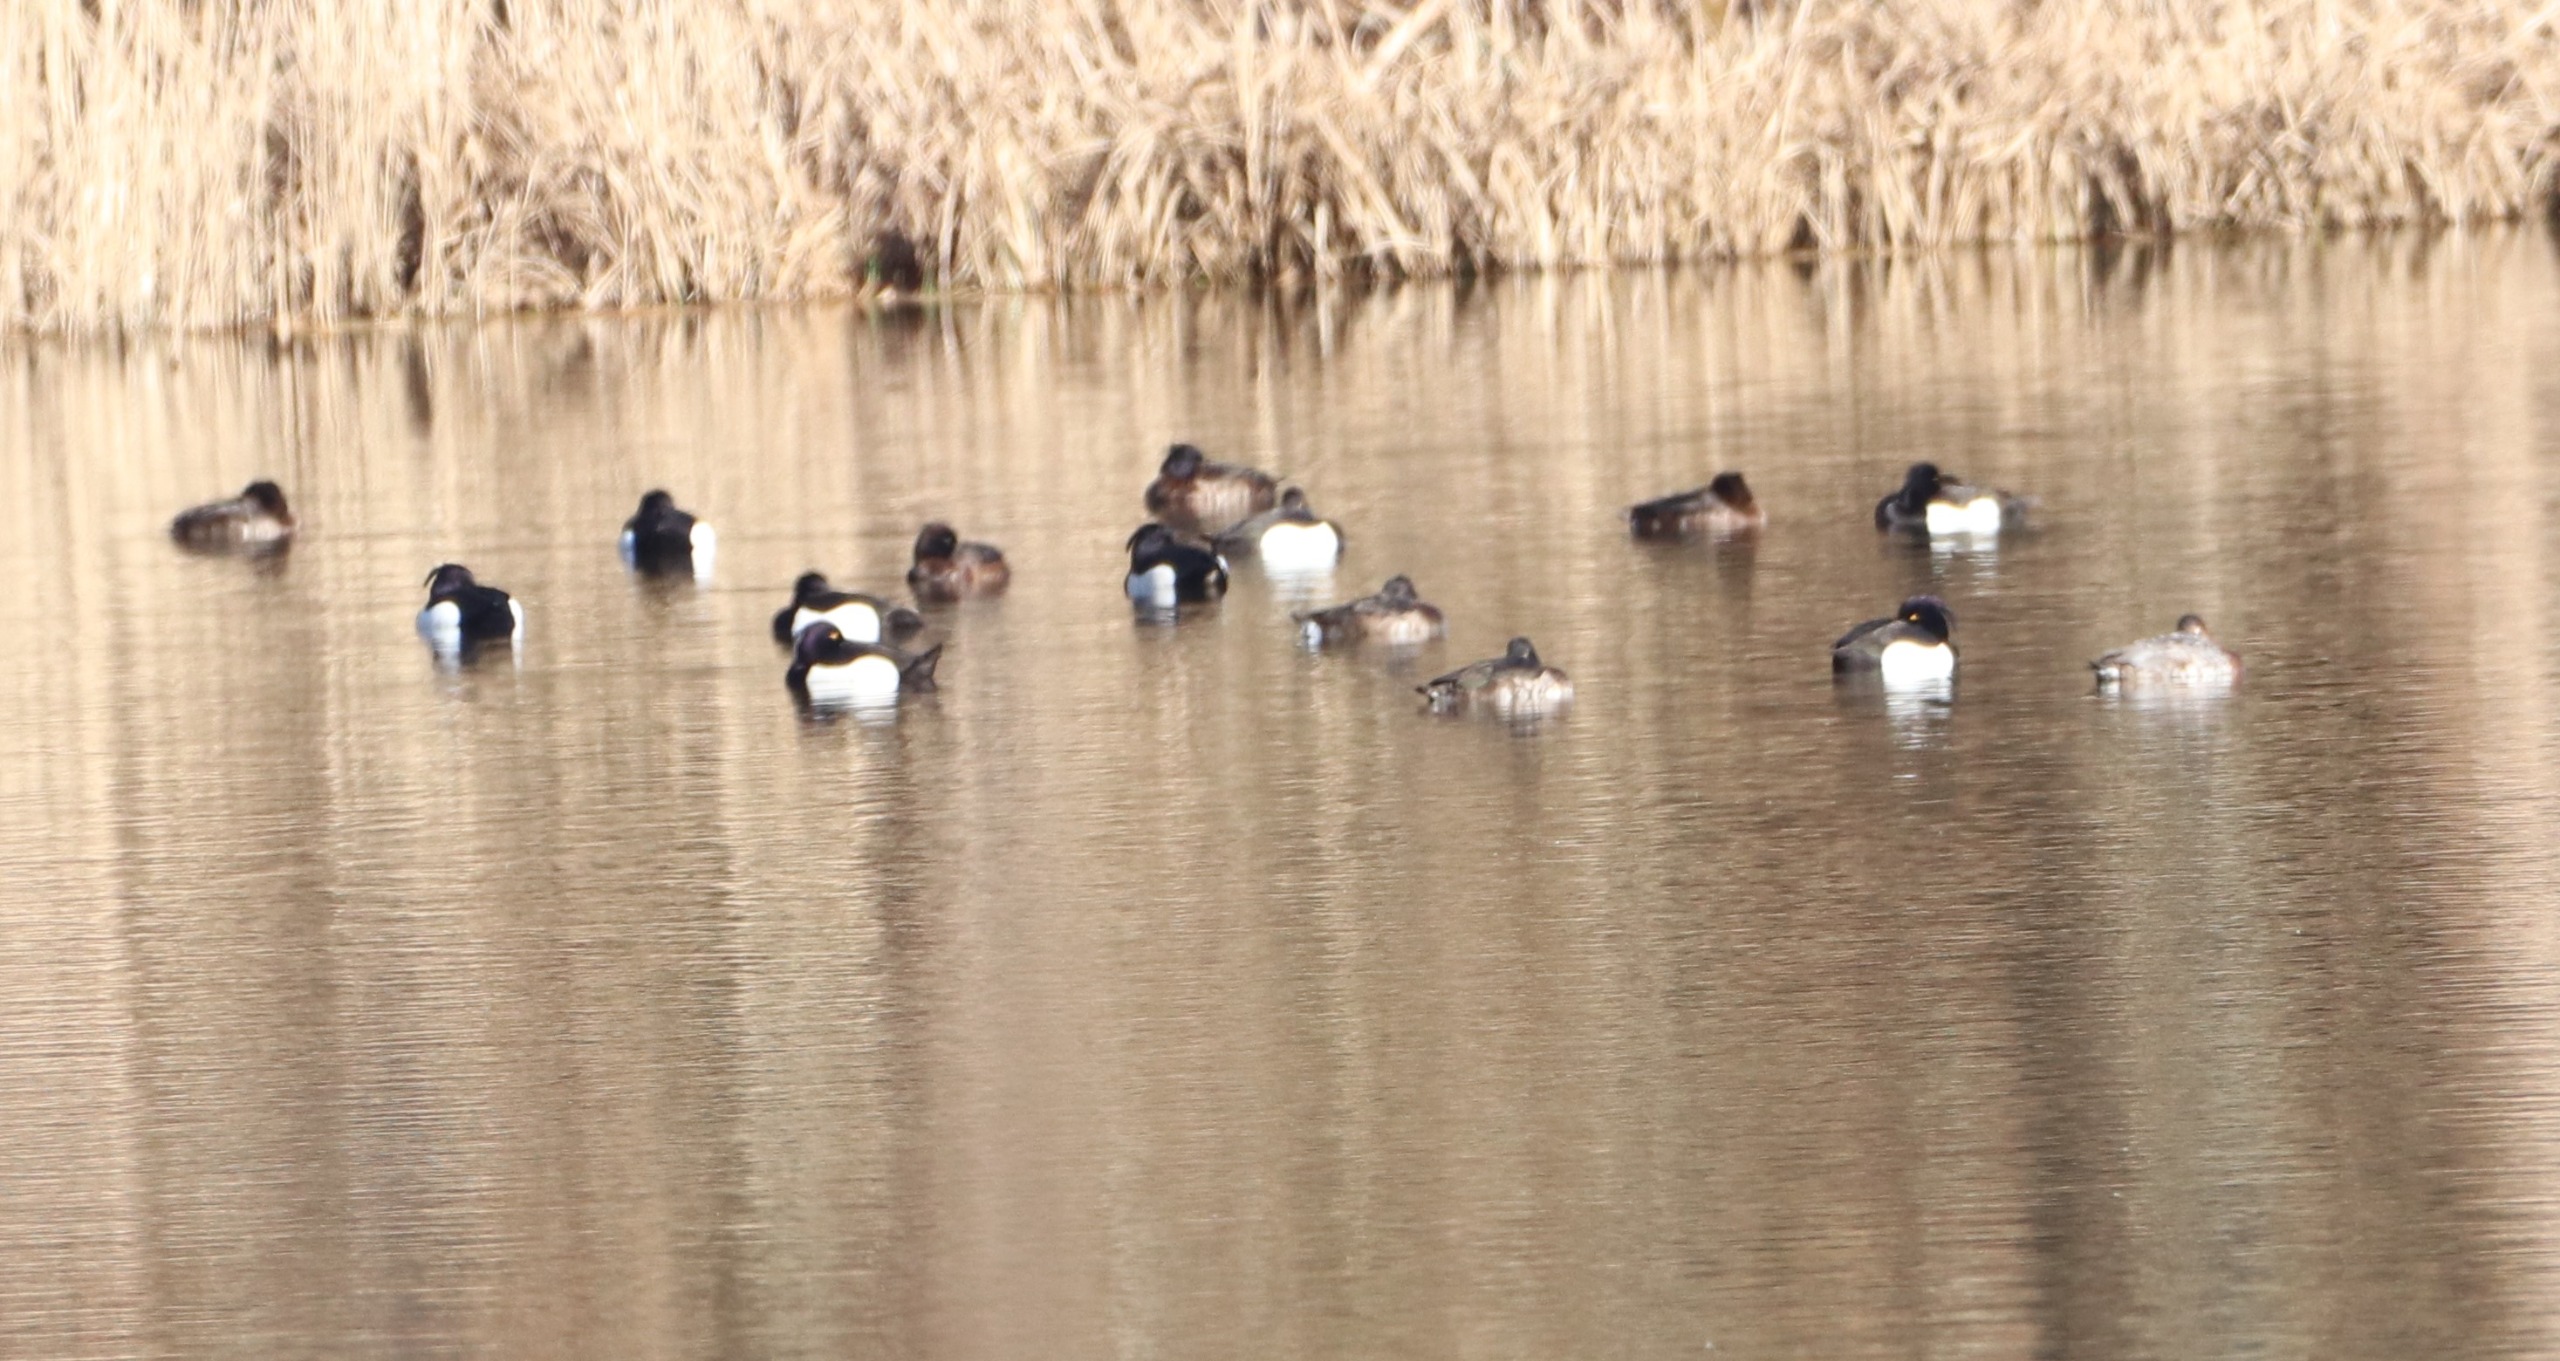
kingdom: Animalia
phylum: Chordata
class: Aves
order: Anseriformes
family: Anatidae
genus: Aythya
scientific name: Aythya fuligula
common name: Troldand
